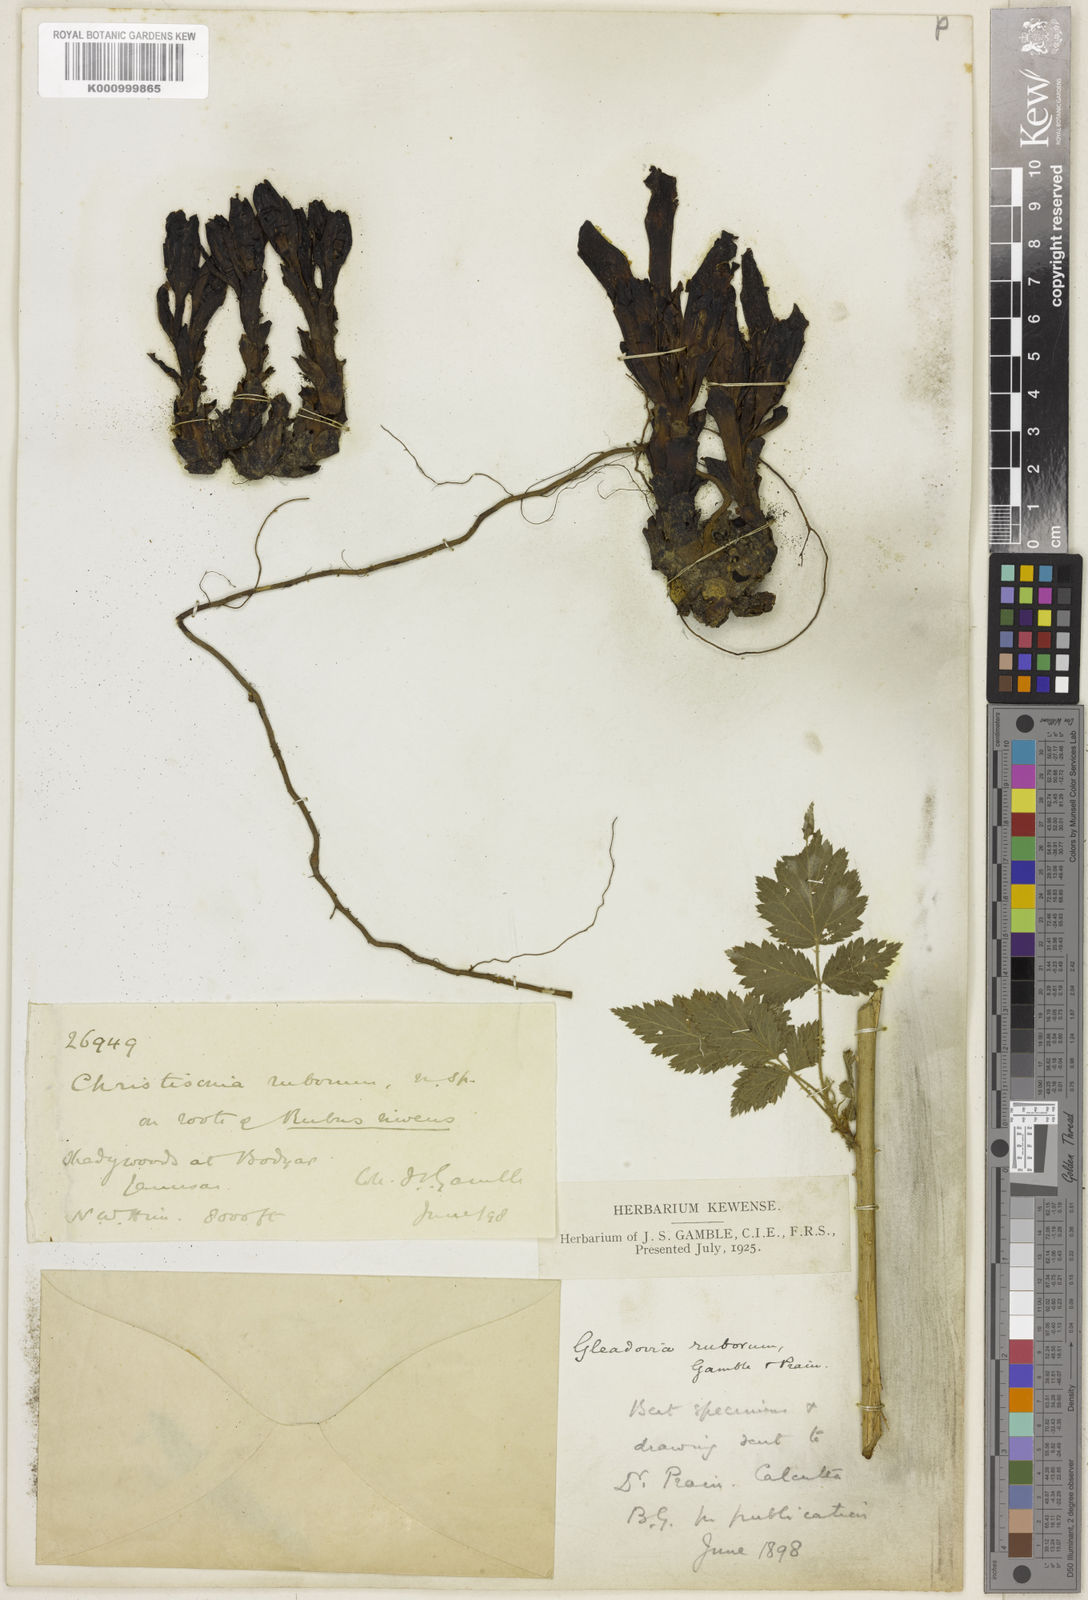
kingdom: Plantae
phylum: Tracheophyta
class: Magnoliopsida
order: Lamiales
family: Orobanchaceae
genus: Gleadovia
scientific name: Gleadovia ruborum
